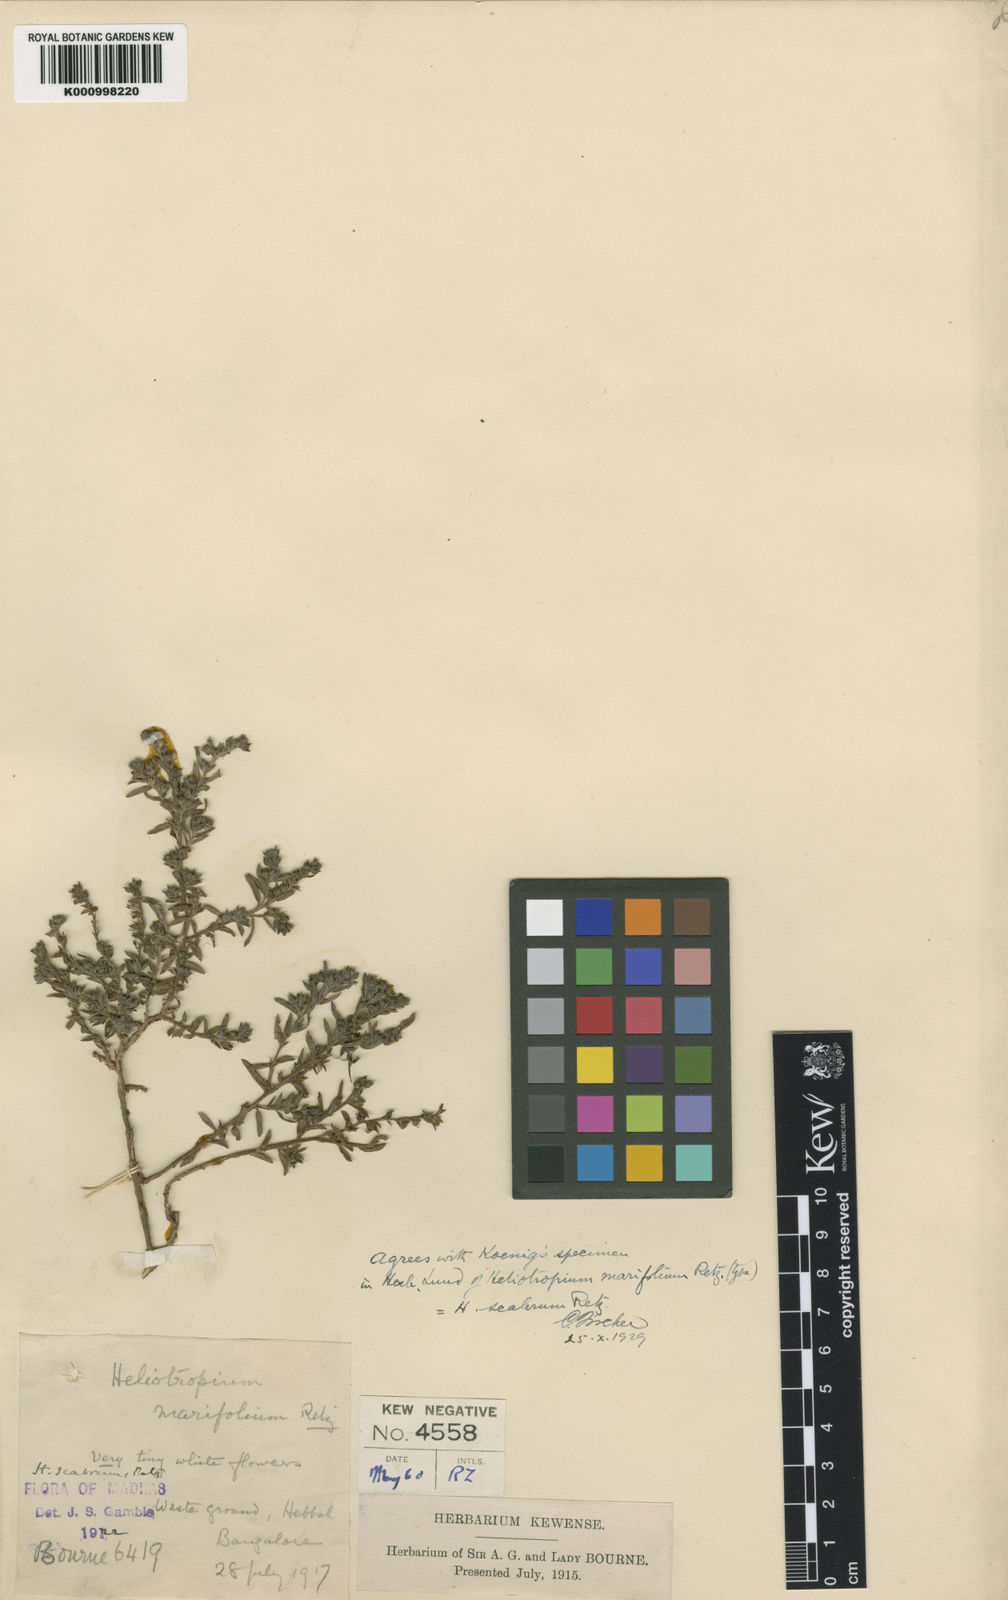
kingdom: Plantae
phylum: Tracheophyta
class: Magnoliopsida
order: Boraginales
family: Heliotropiaceae
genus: Euploca
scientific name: Euploca marifolia
